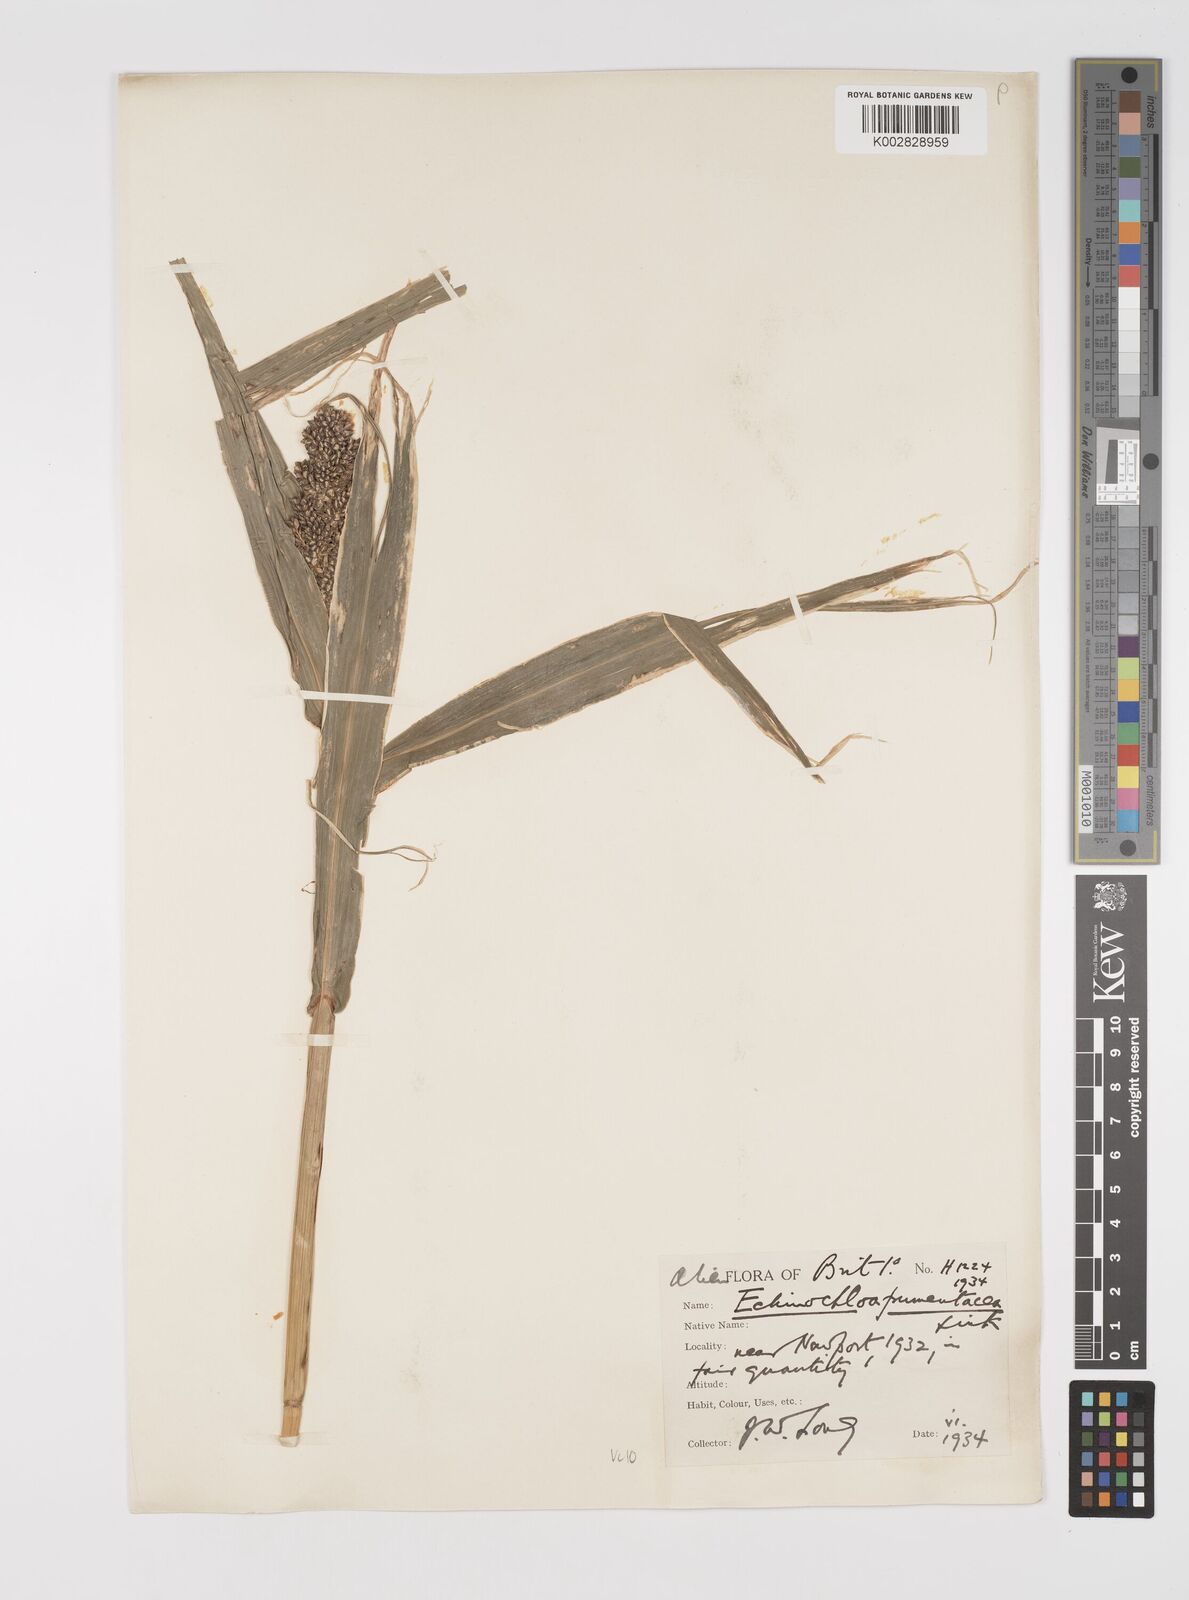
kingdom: Plantae
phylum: Tracheophyta
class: Liliopsida
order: Poales
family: Poaceae
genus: Echinochloa
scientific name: Echinochloa crus-galli
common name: Cockspur
